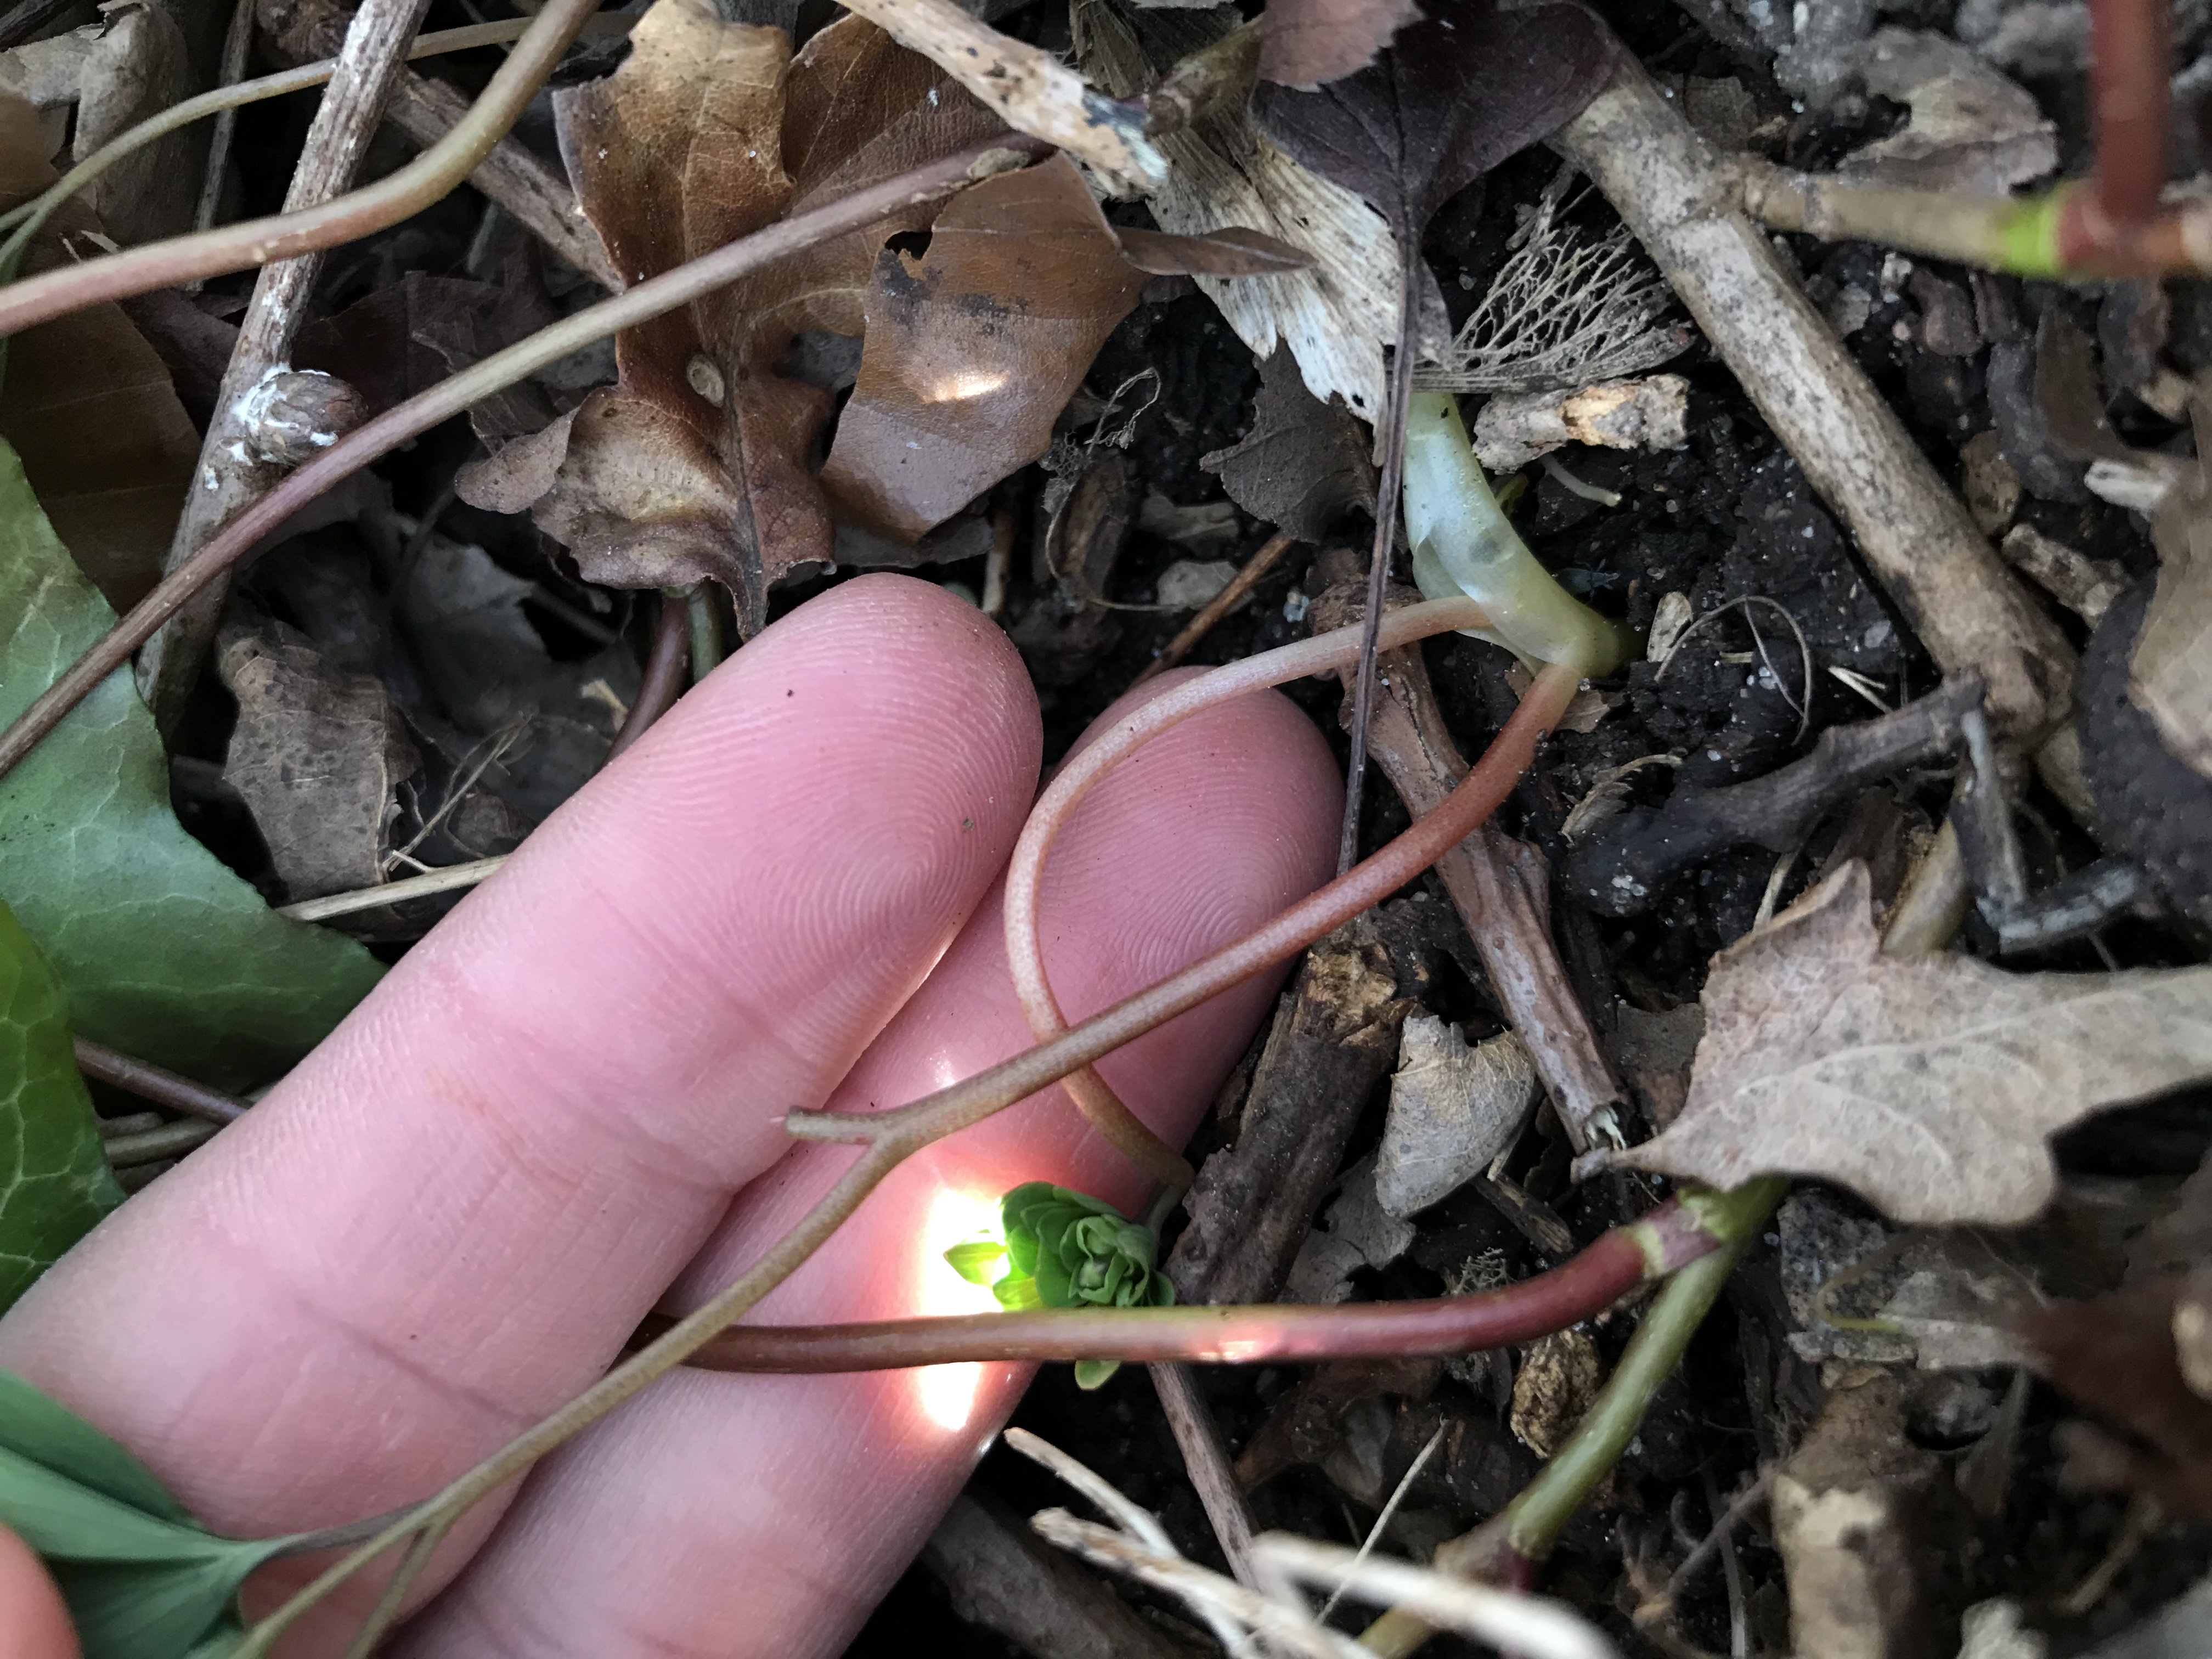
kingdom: Plantae
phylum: Tracheophyta
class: Magnoliopsida
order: Ranunculales
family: Papaveraceae
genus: Corydalis
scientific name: Corydalis intermedia
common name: Liden lærkespore
